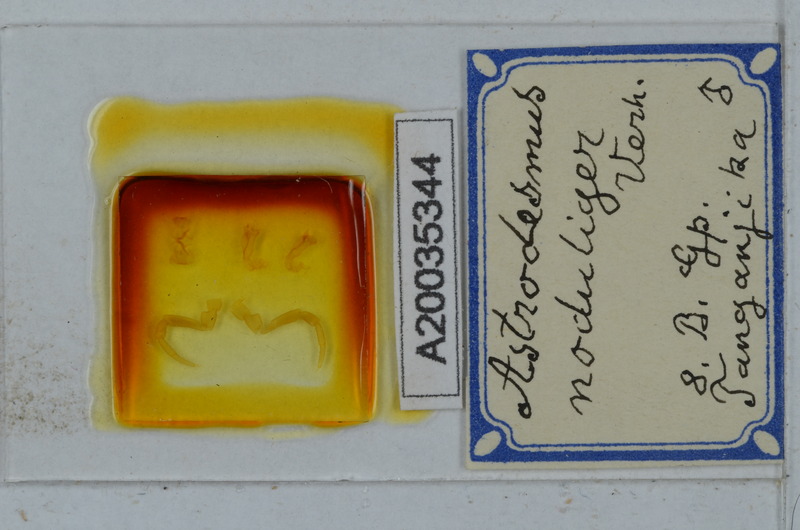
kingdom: Animalia
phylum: Arthropoda
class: Diplopoda
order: Polydesmida
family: Gomphodesmidae
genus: Astrodesmus
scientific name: Astrodesmus noduliger
